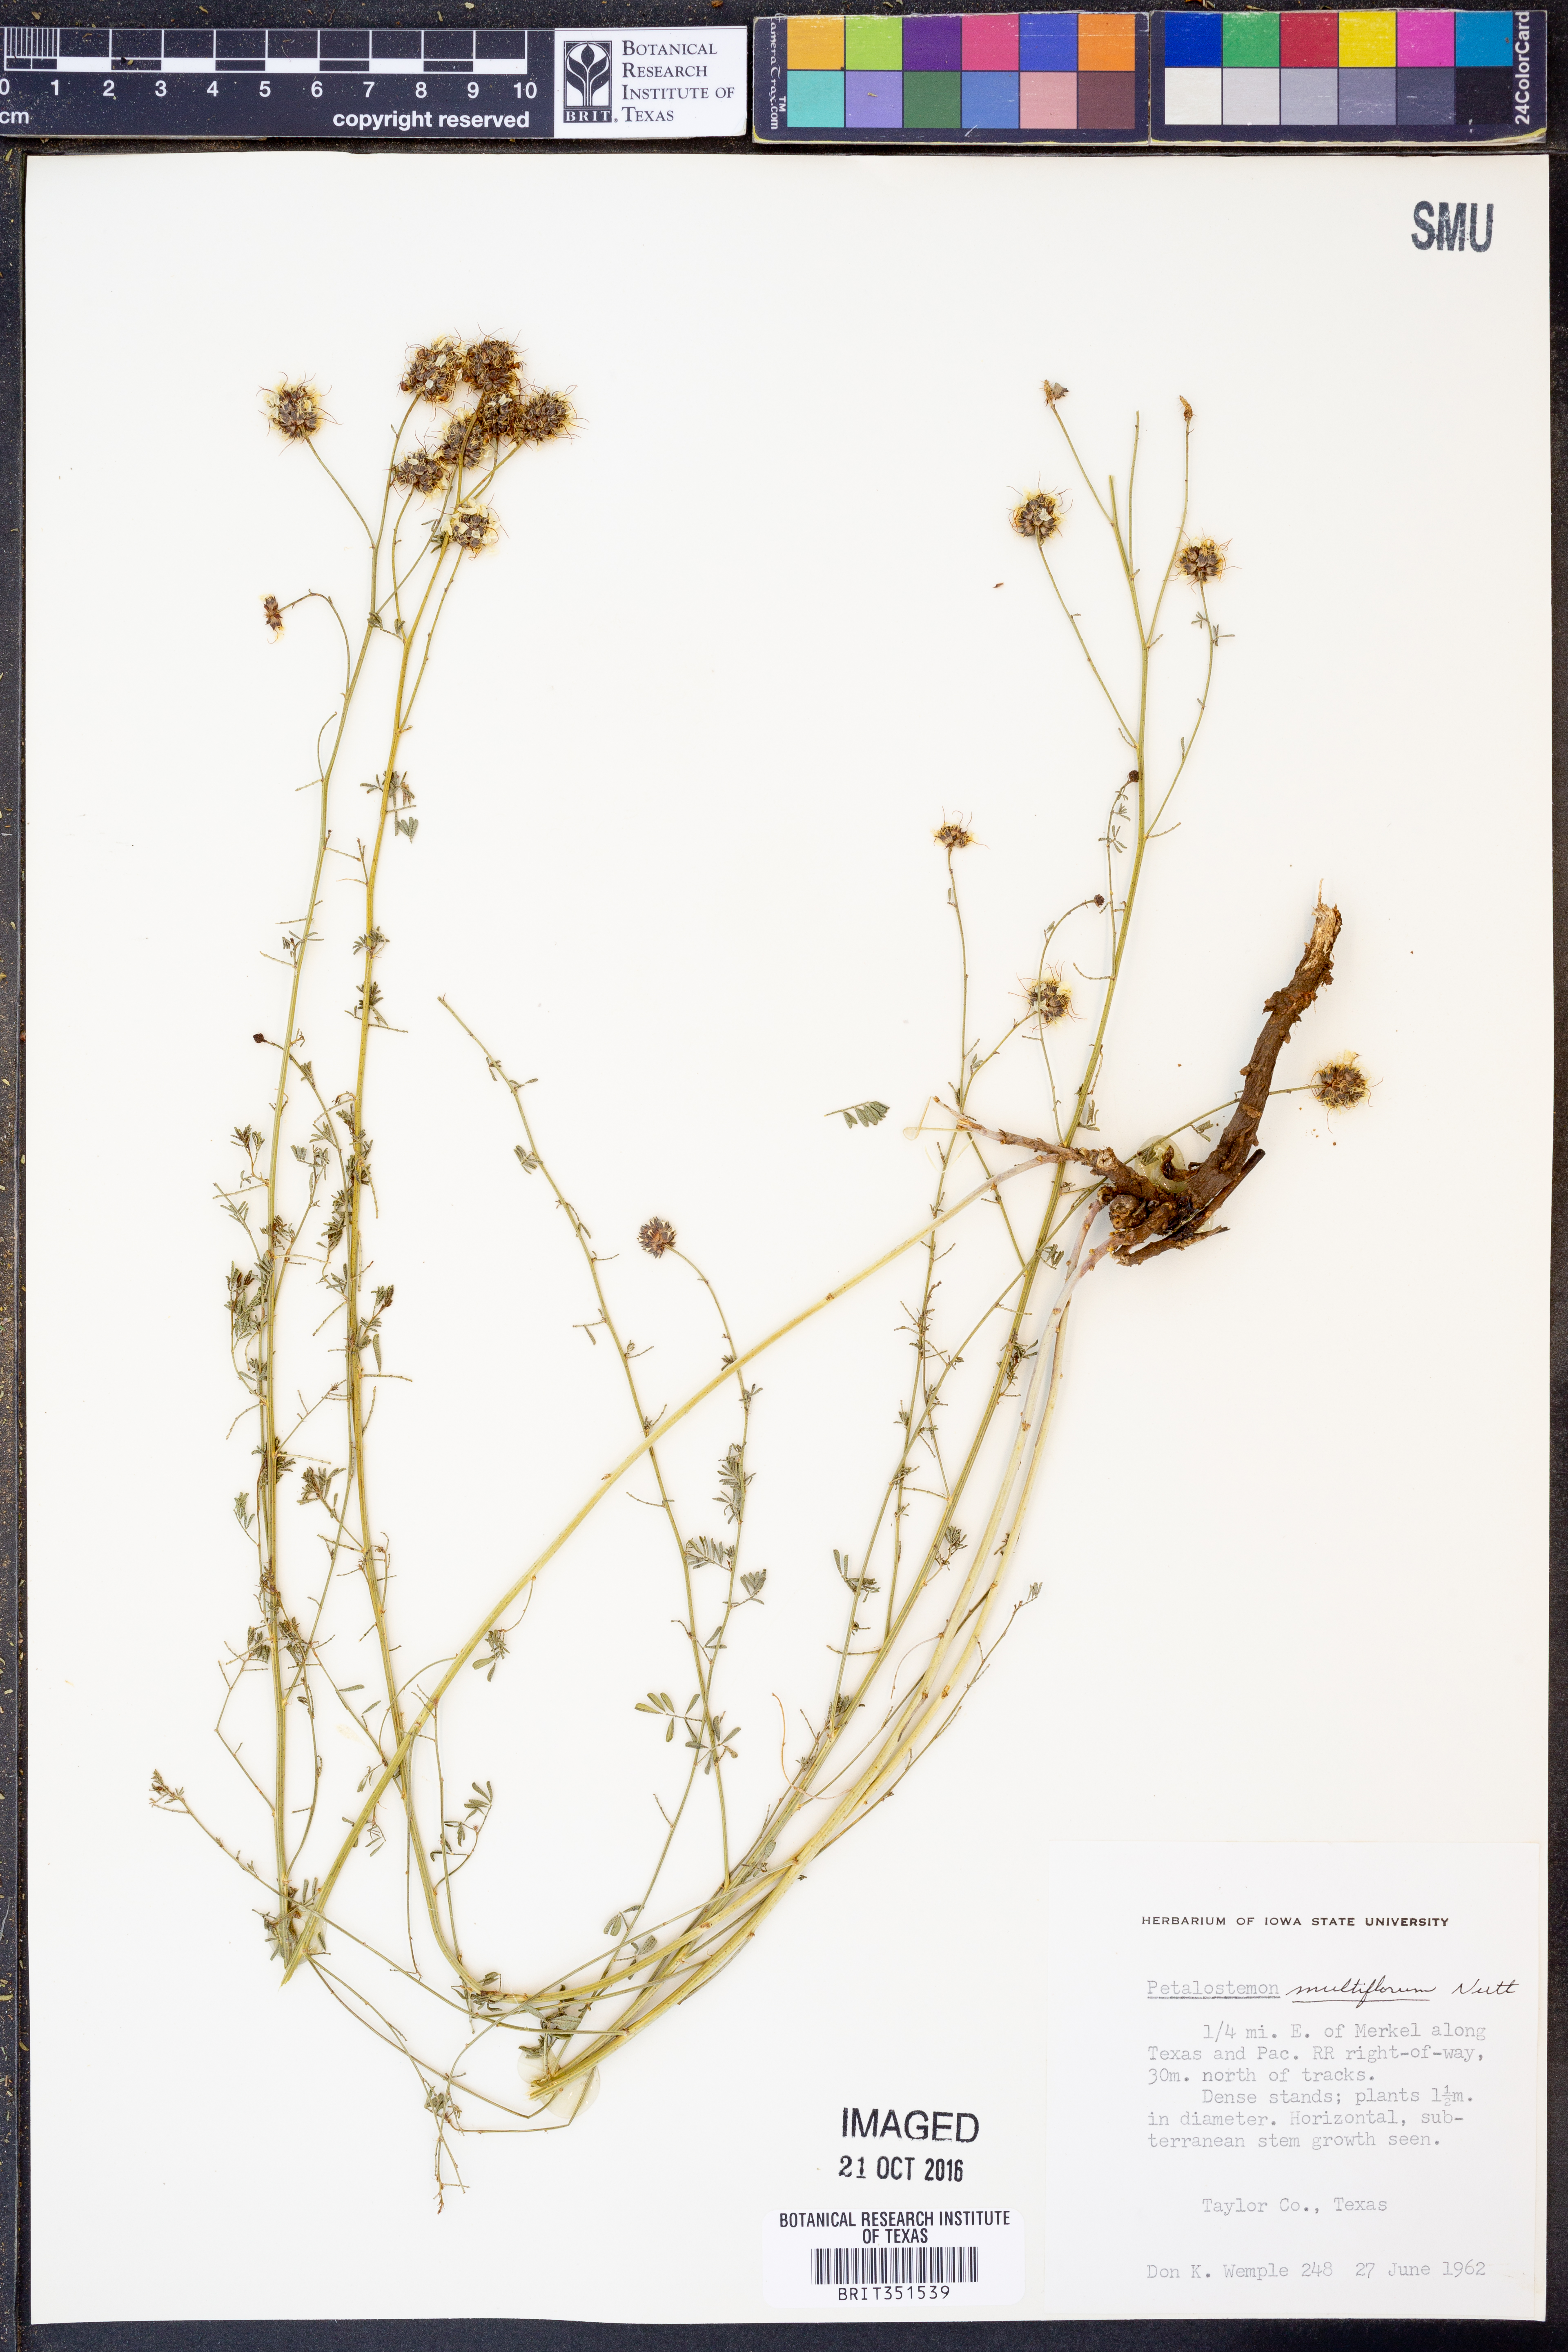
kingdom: Plantae
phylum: Tracheophyta
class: Magnoliopsida
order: Fabales
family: Fabaceae
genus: Dalea
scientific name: Dalea multiflora
